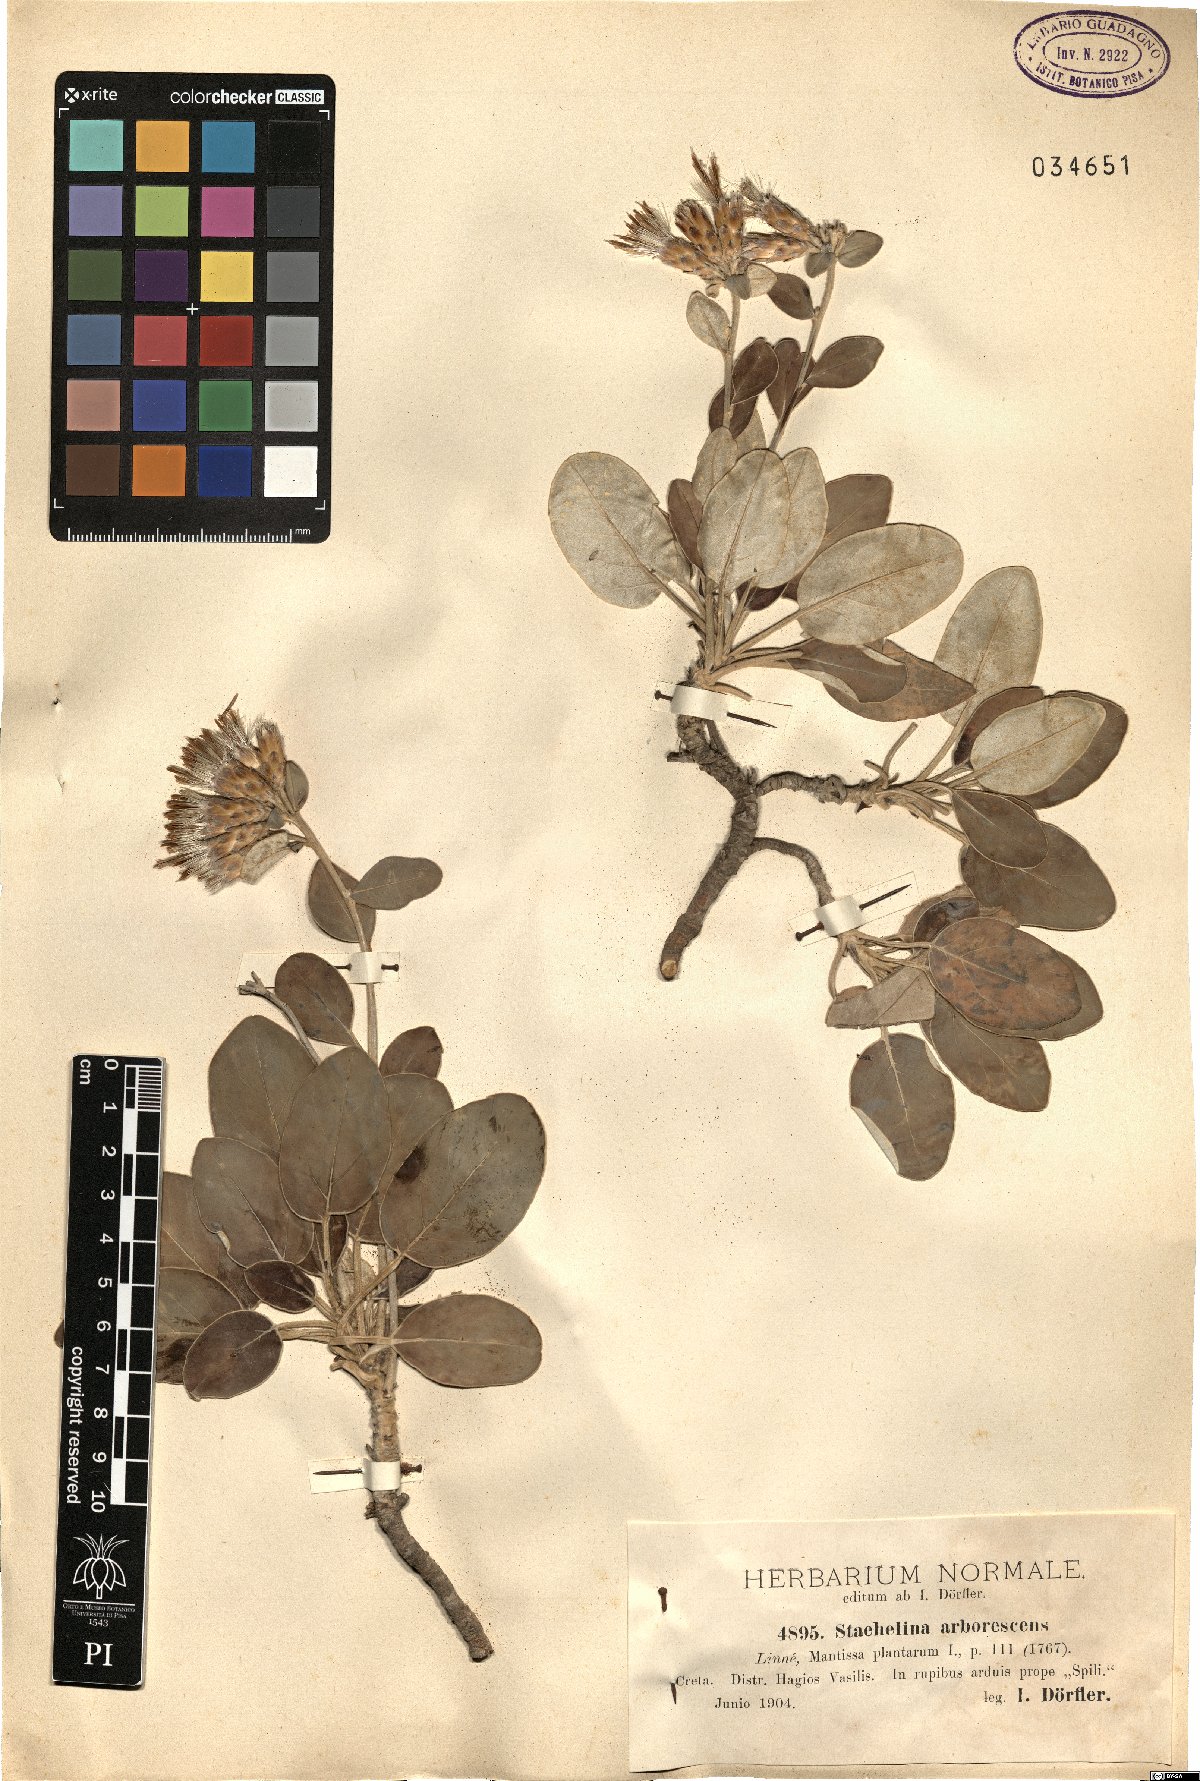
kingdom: Plantae
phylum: Tracheophyta
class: Magnoliopsida
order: Asterales
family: Asteraceae
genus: Staehelina
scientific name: Staehelina petiolata
